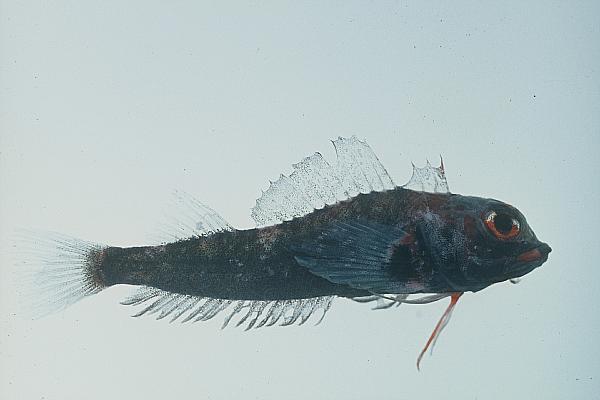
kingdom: Animalia
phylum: Chordata
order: Perciformes
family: Tripterygiidae
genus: Helcogramma
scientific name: Helcogramma rharhabe
